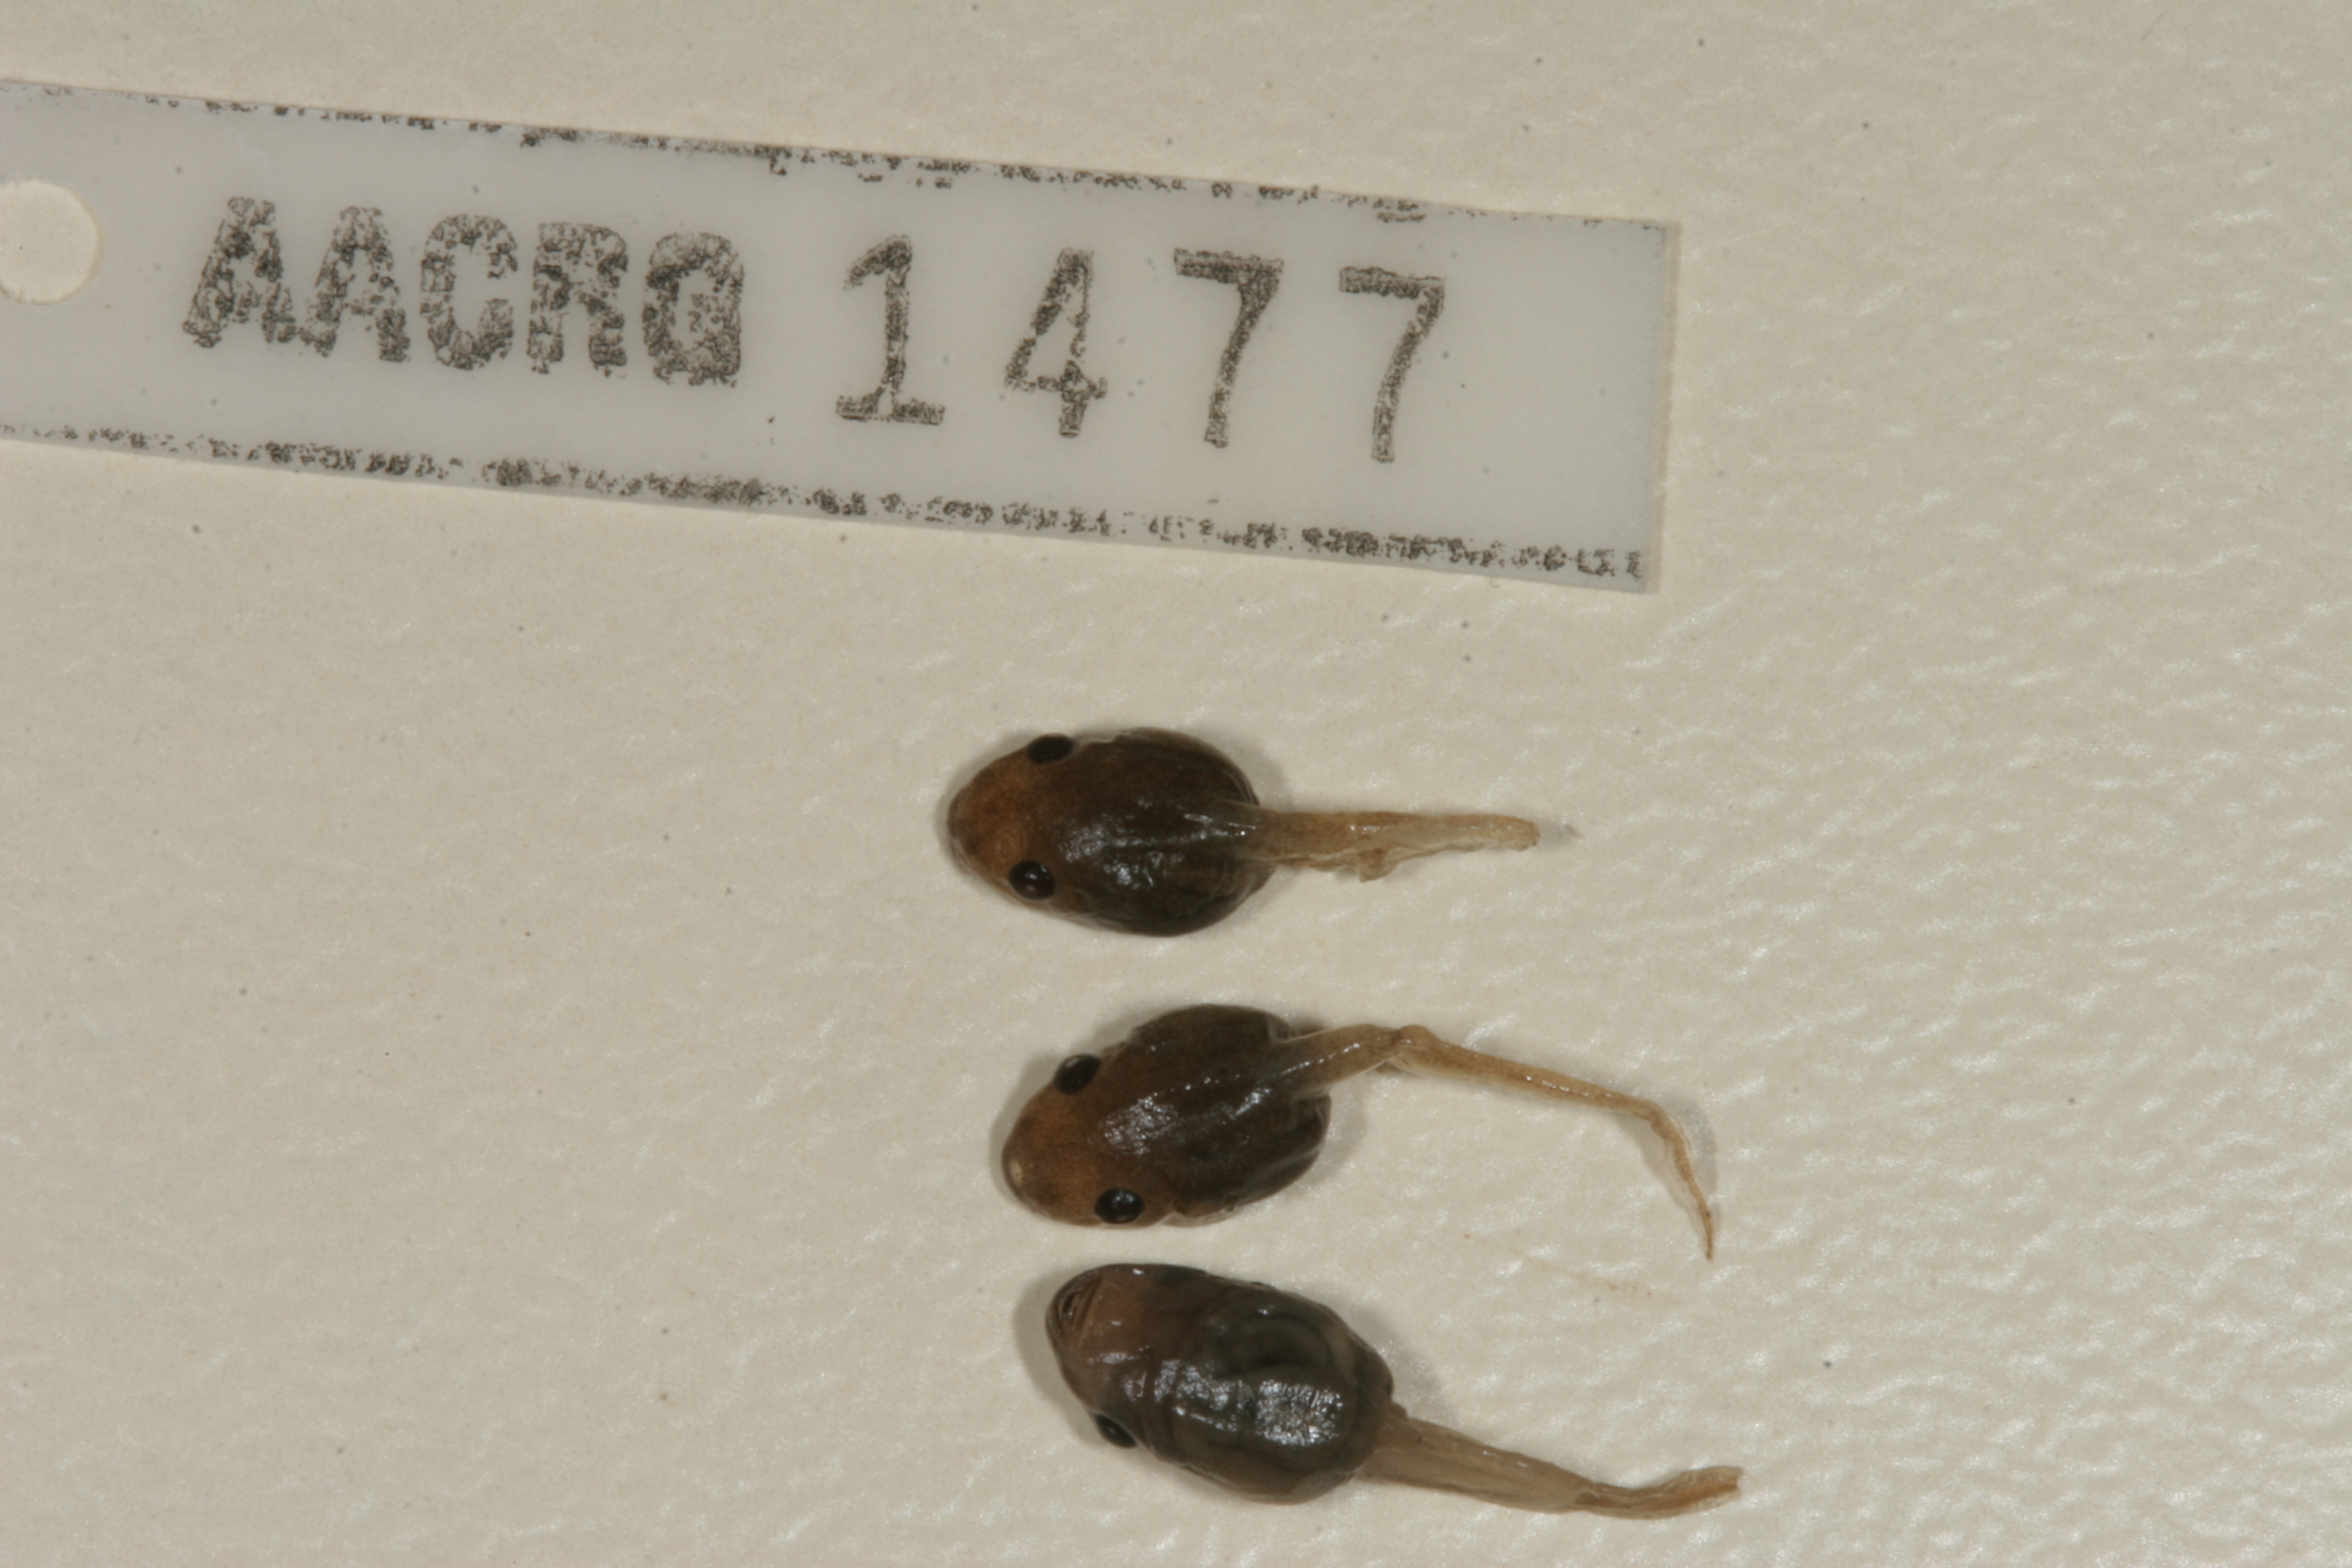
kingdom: Animalia
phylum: Chordata
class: Amphibia
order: Anura
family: Hemisotidae
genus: Hemisus
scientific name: Hemisus marmoratus
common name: Mottled shovel-nosed frog
